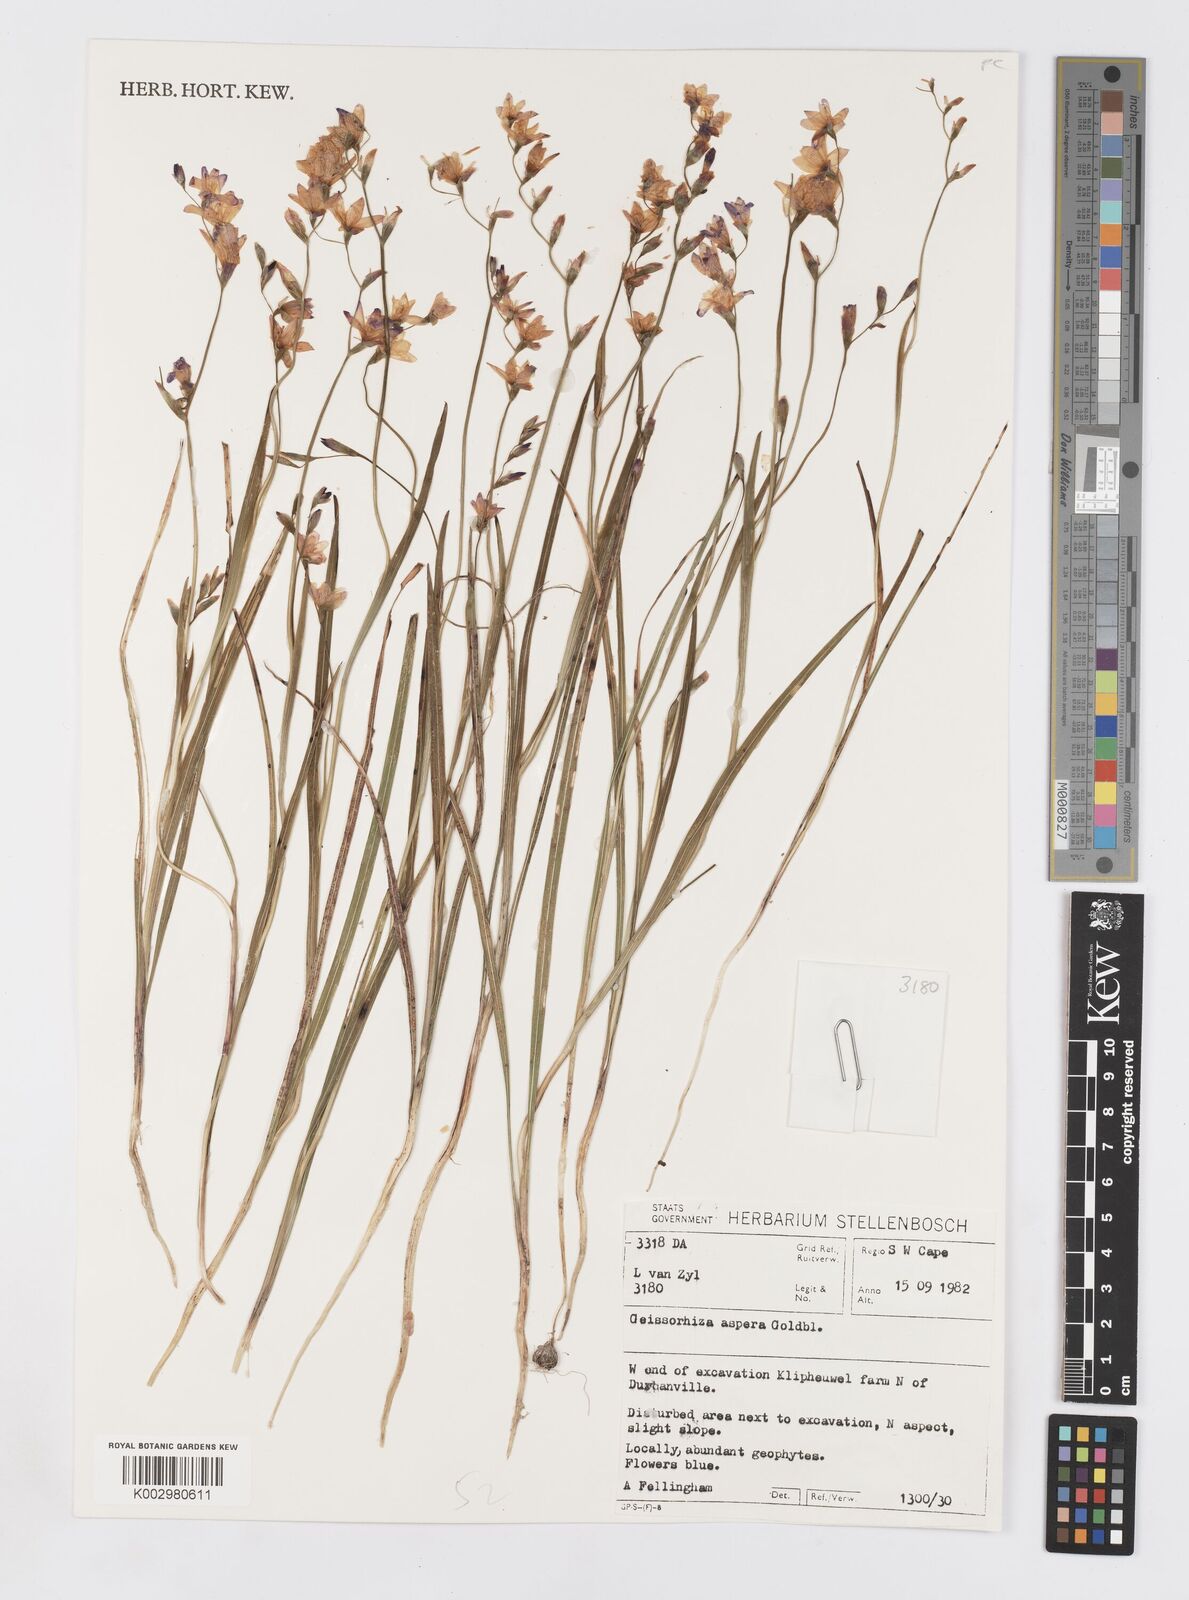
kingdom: Plantae
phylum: Tracheophyta
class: Liliopsida
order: Asparagales
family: Iridaceae
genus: Geissorhiza
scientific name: Geissorhiza aspera
